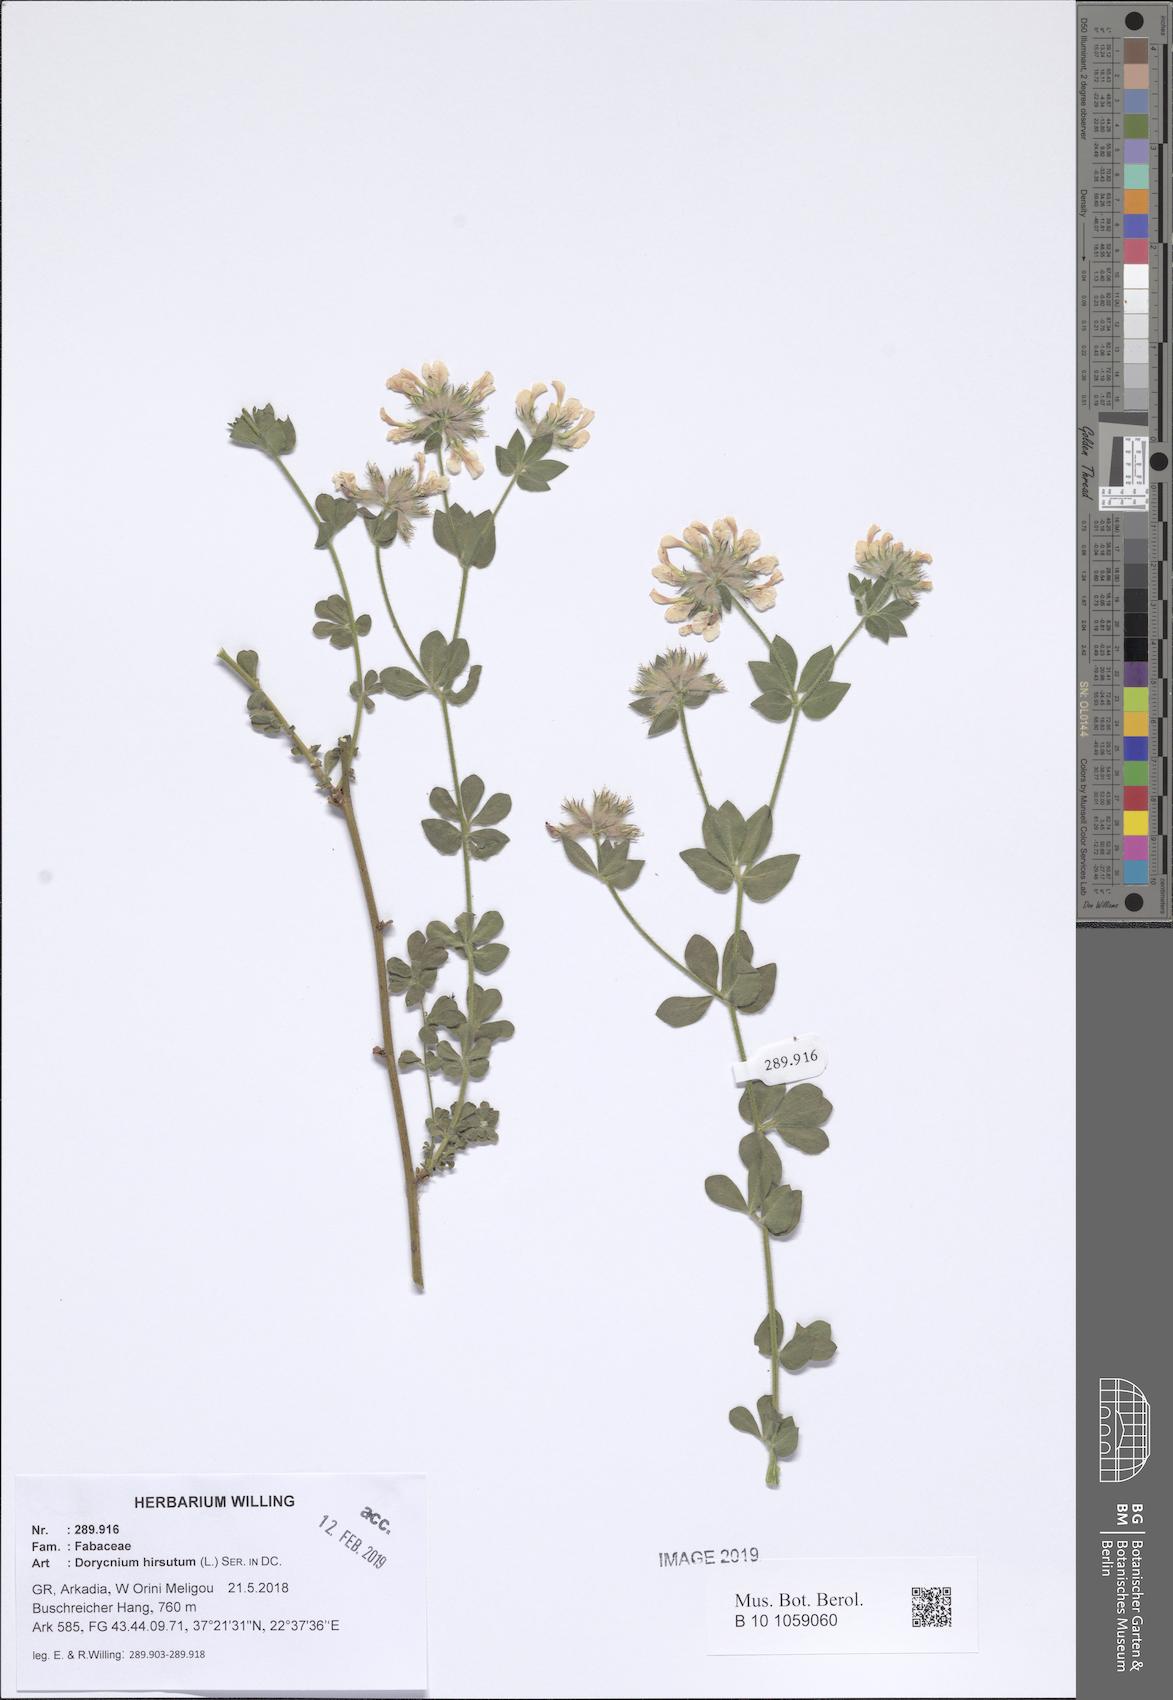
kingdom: Plantae
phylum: Tracheophyta
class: Magnoliopsida
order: Fabales
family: Fabaceae
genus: Lotus
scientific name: Lotus hirsutus
